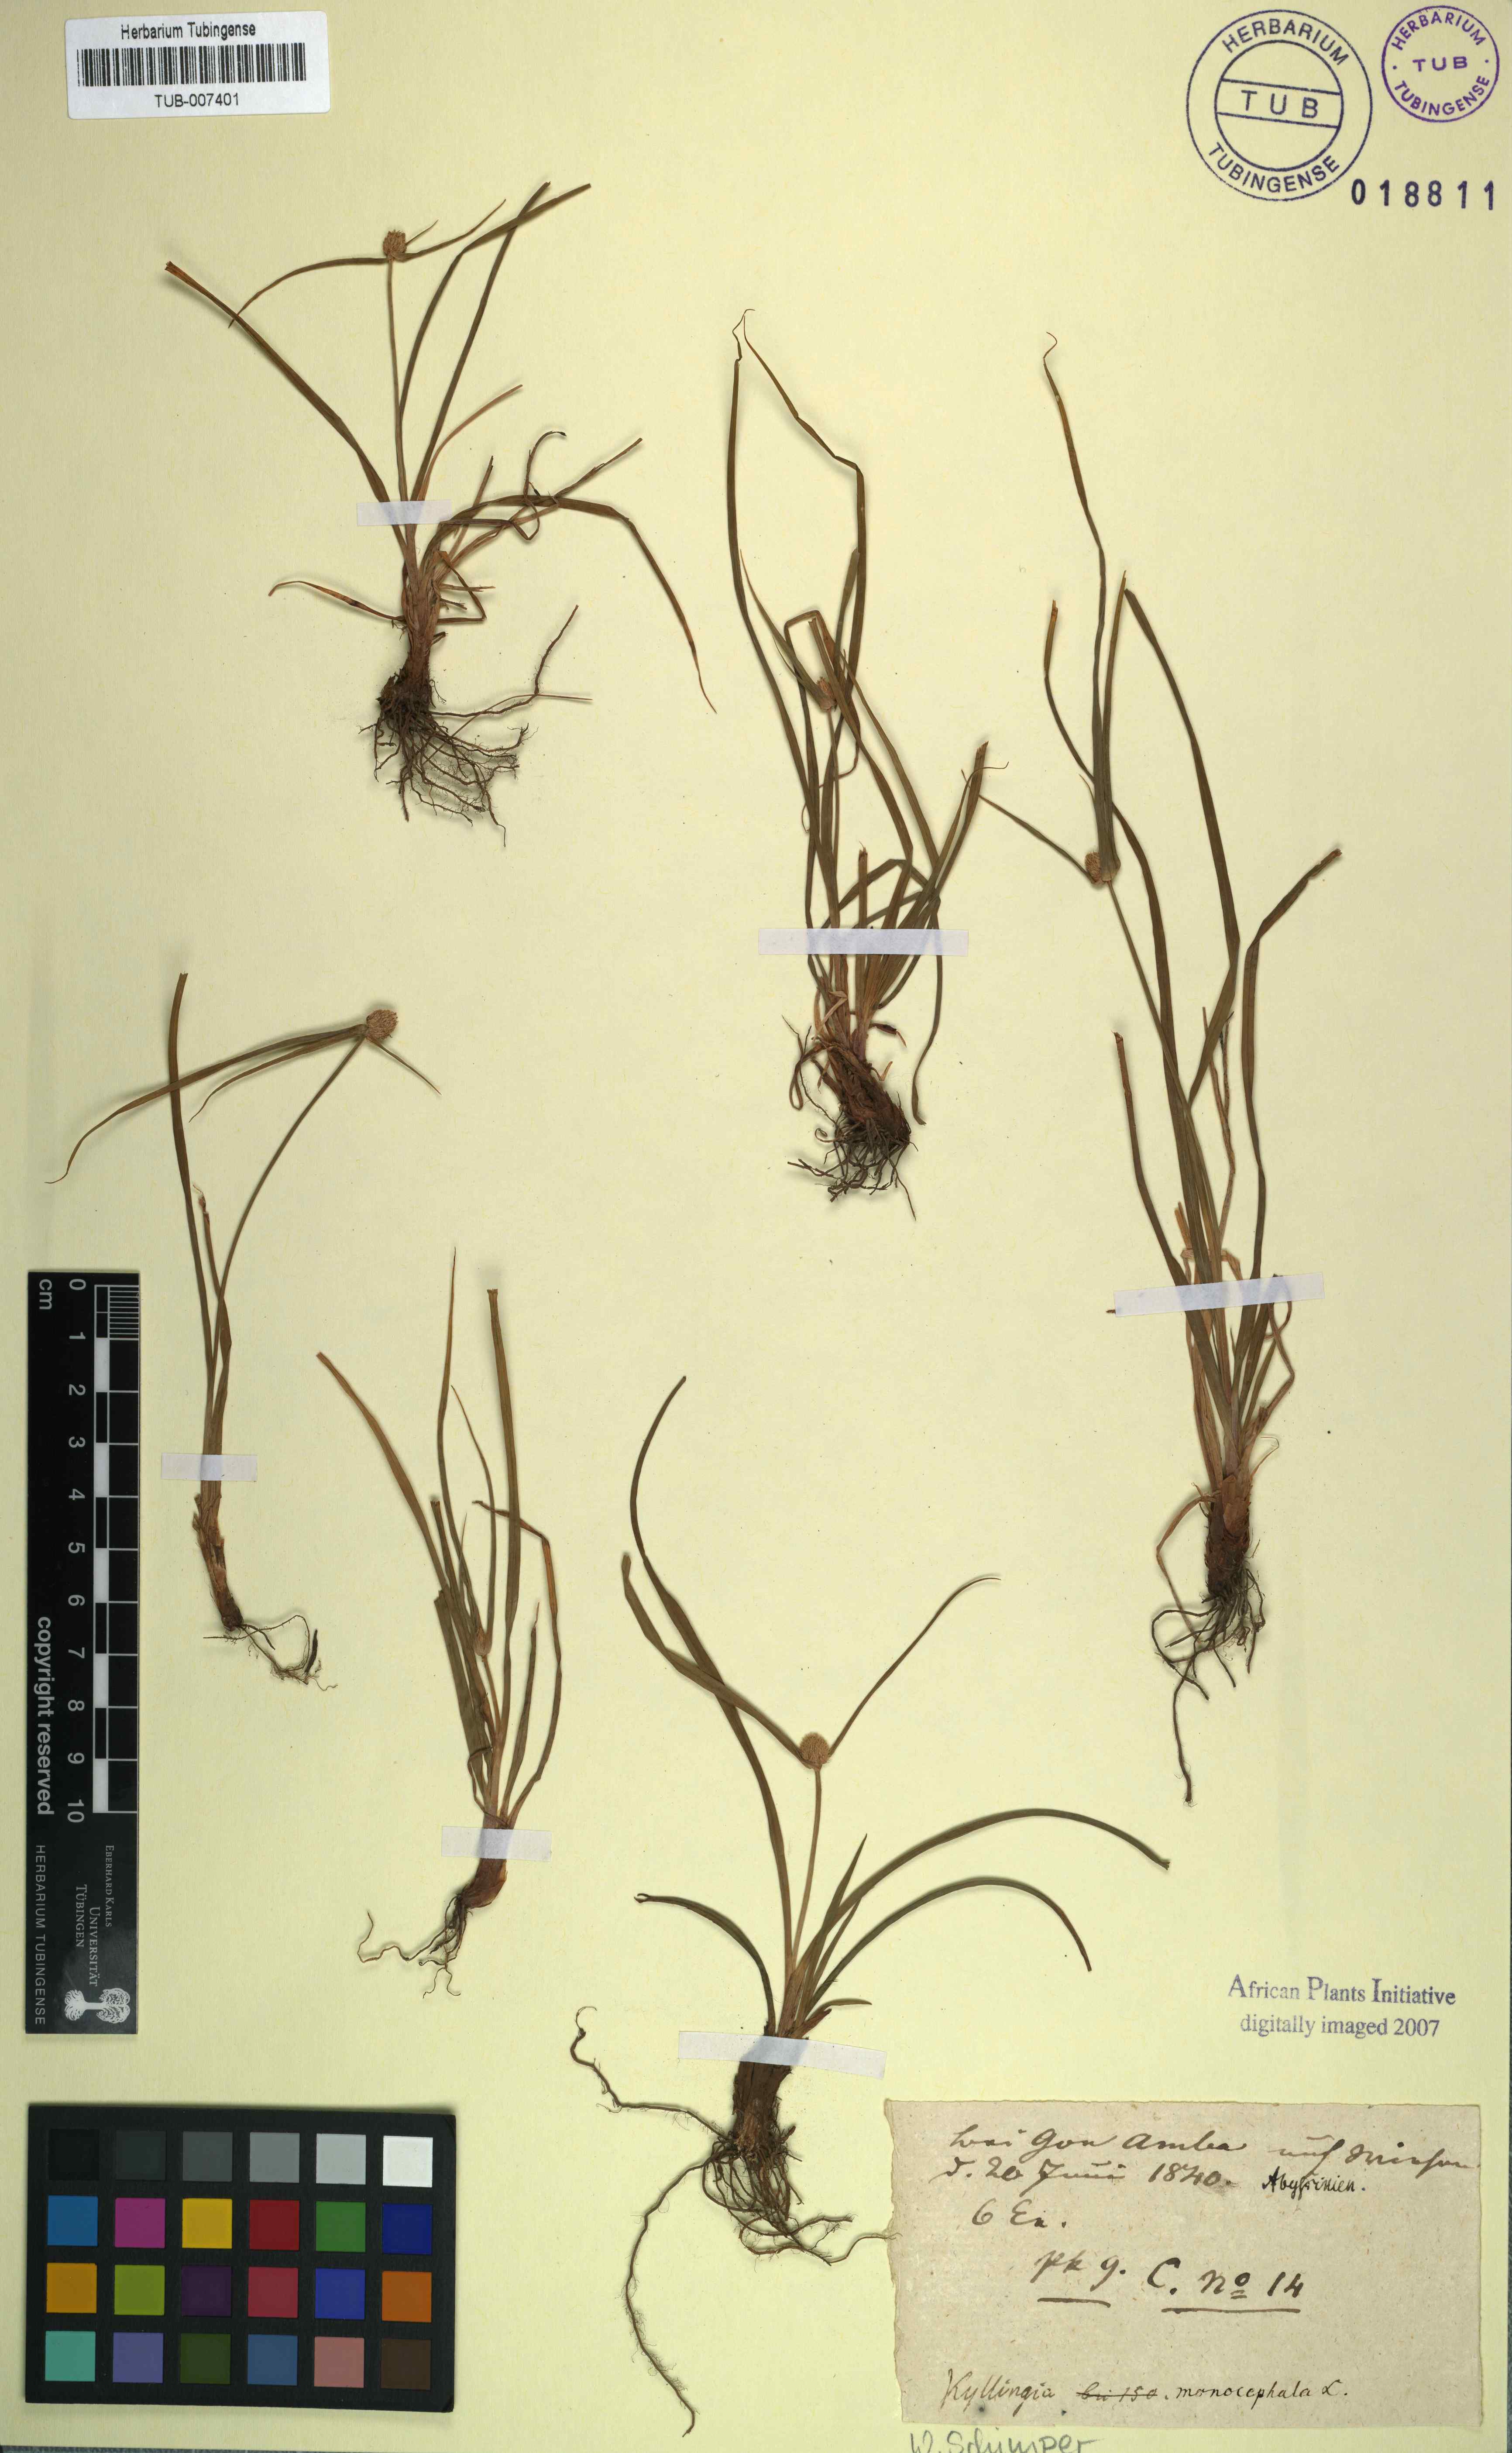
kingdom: Plantae
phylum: Tracheophyta
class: Liliopsida
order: Poales
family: Cyperaceae
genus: Cyperus
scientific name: Cyperus brevifolius
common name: Globe kyllinga
